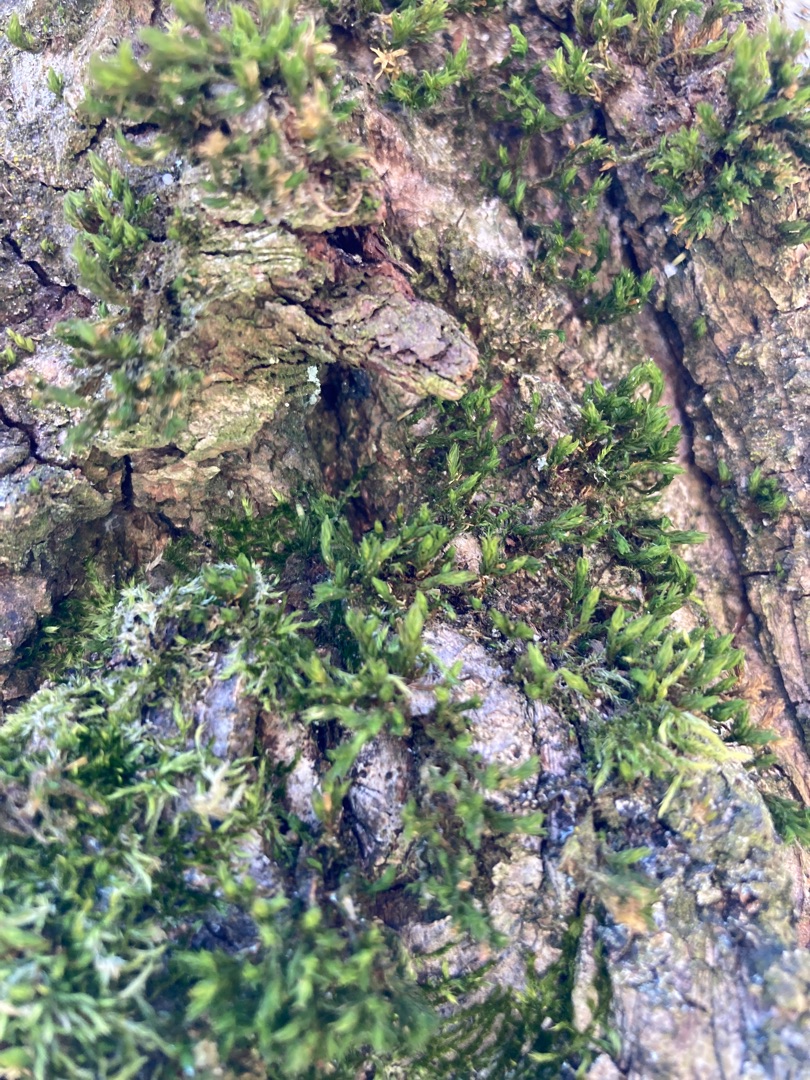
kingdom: Plantae
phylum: Bryophyta
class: Bryopsida
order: Orthotrichales
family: Orthotrichaceae
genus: Lewinskya
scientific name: Lewinskya affinis
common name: Almindelig furehætte
